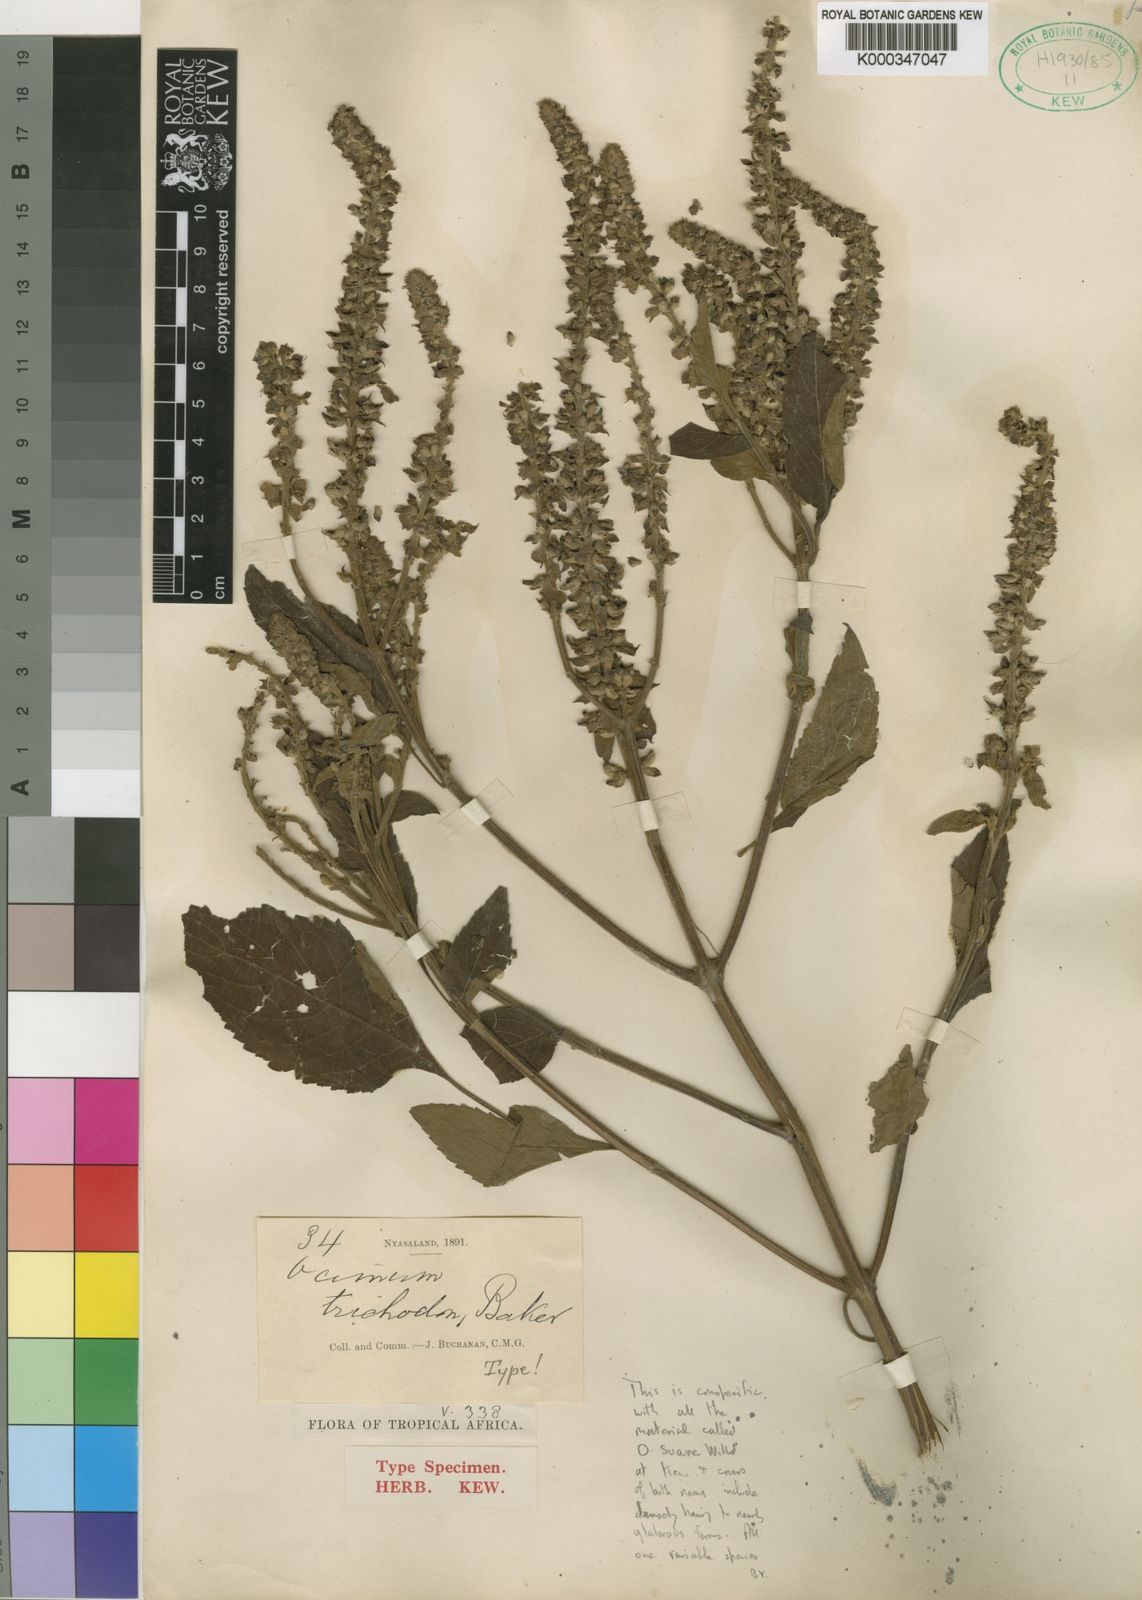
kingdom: Plantae
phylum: Tracheophyta
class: Magnoliopsida
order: Lamiales
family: Lamiaceae
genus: Ocimum
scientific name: Ocimum gratissimum
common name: African basil
